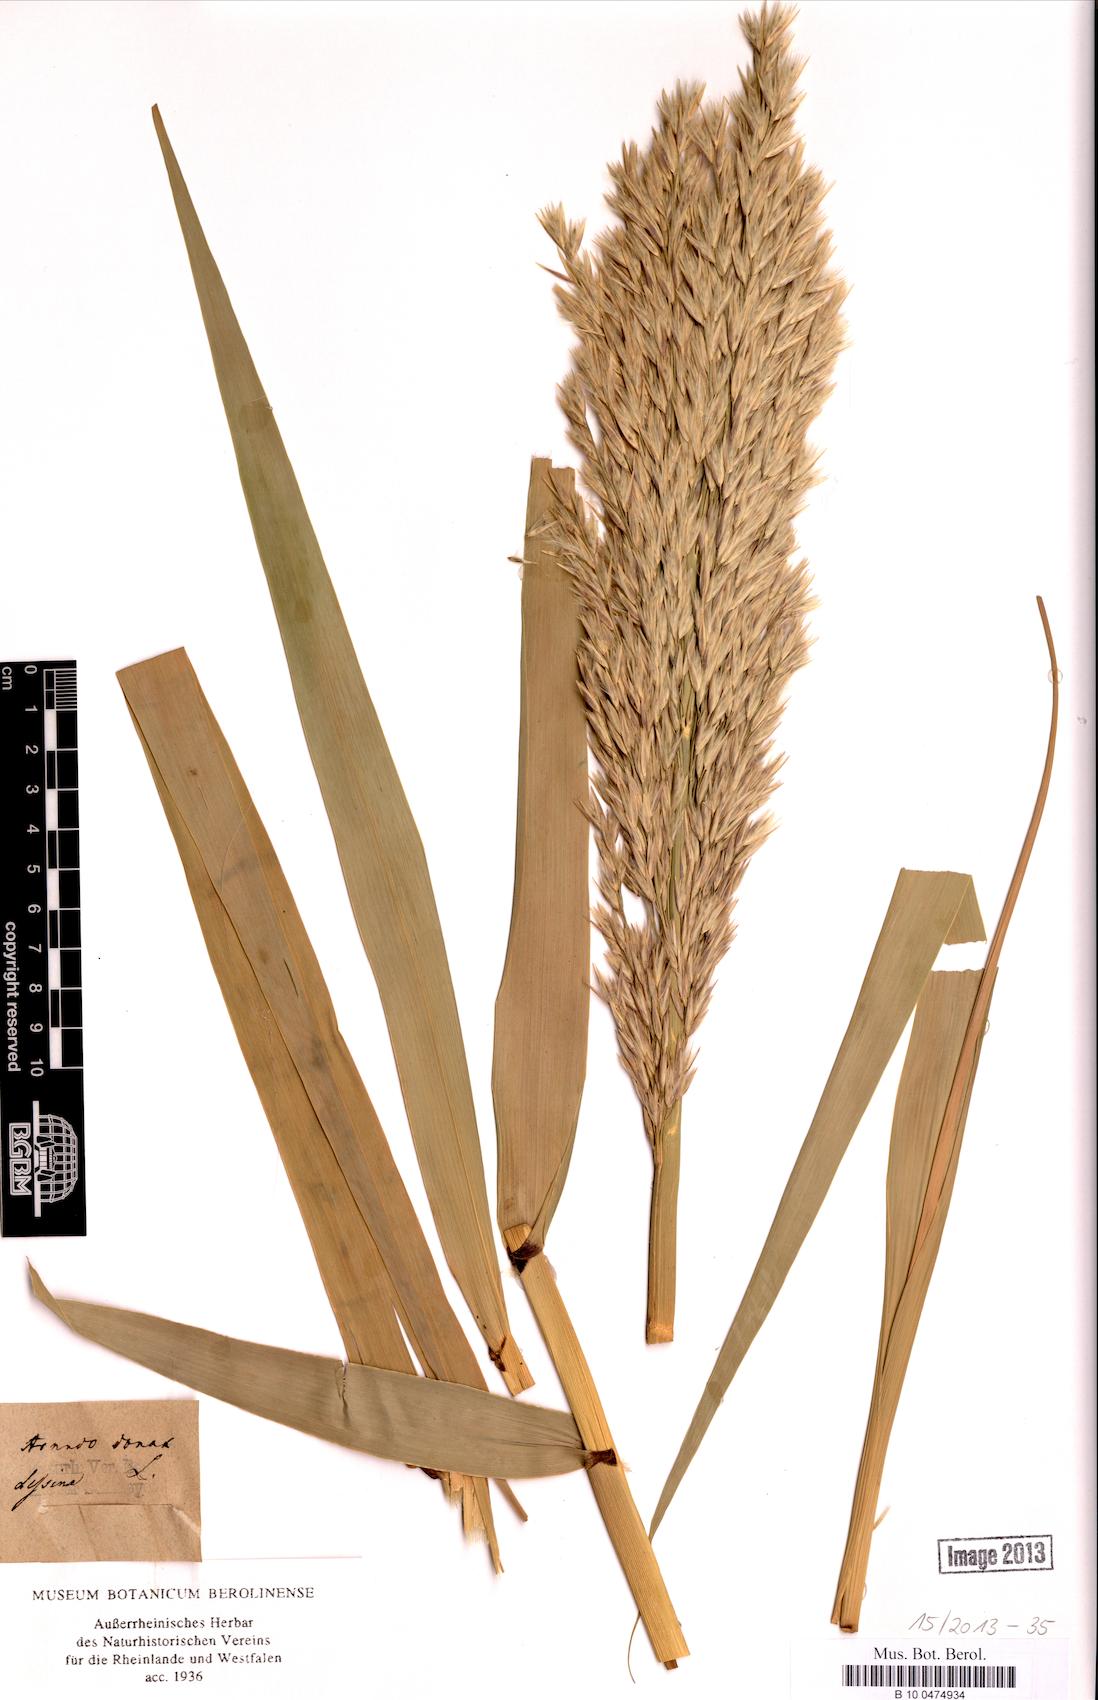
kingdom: Plantae
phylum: Tracheophyta
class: Liliopsida
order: Poales
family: Poaceae
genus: Arundo
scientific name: Arundo donax
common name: Giant reed
